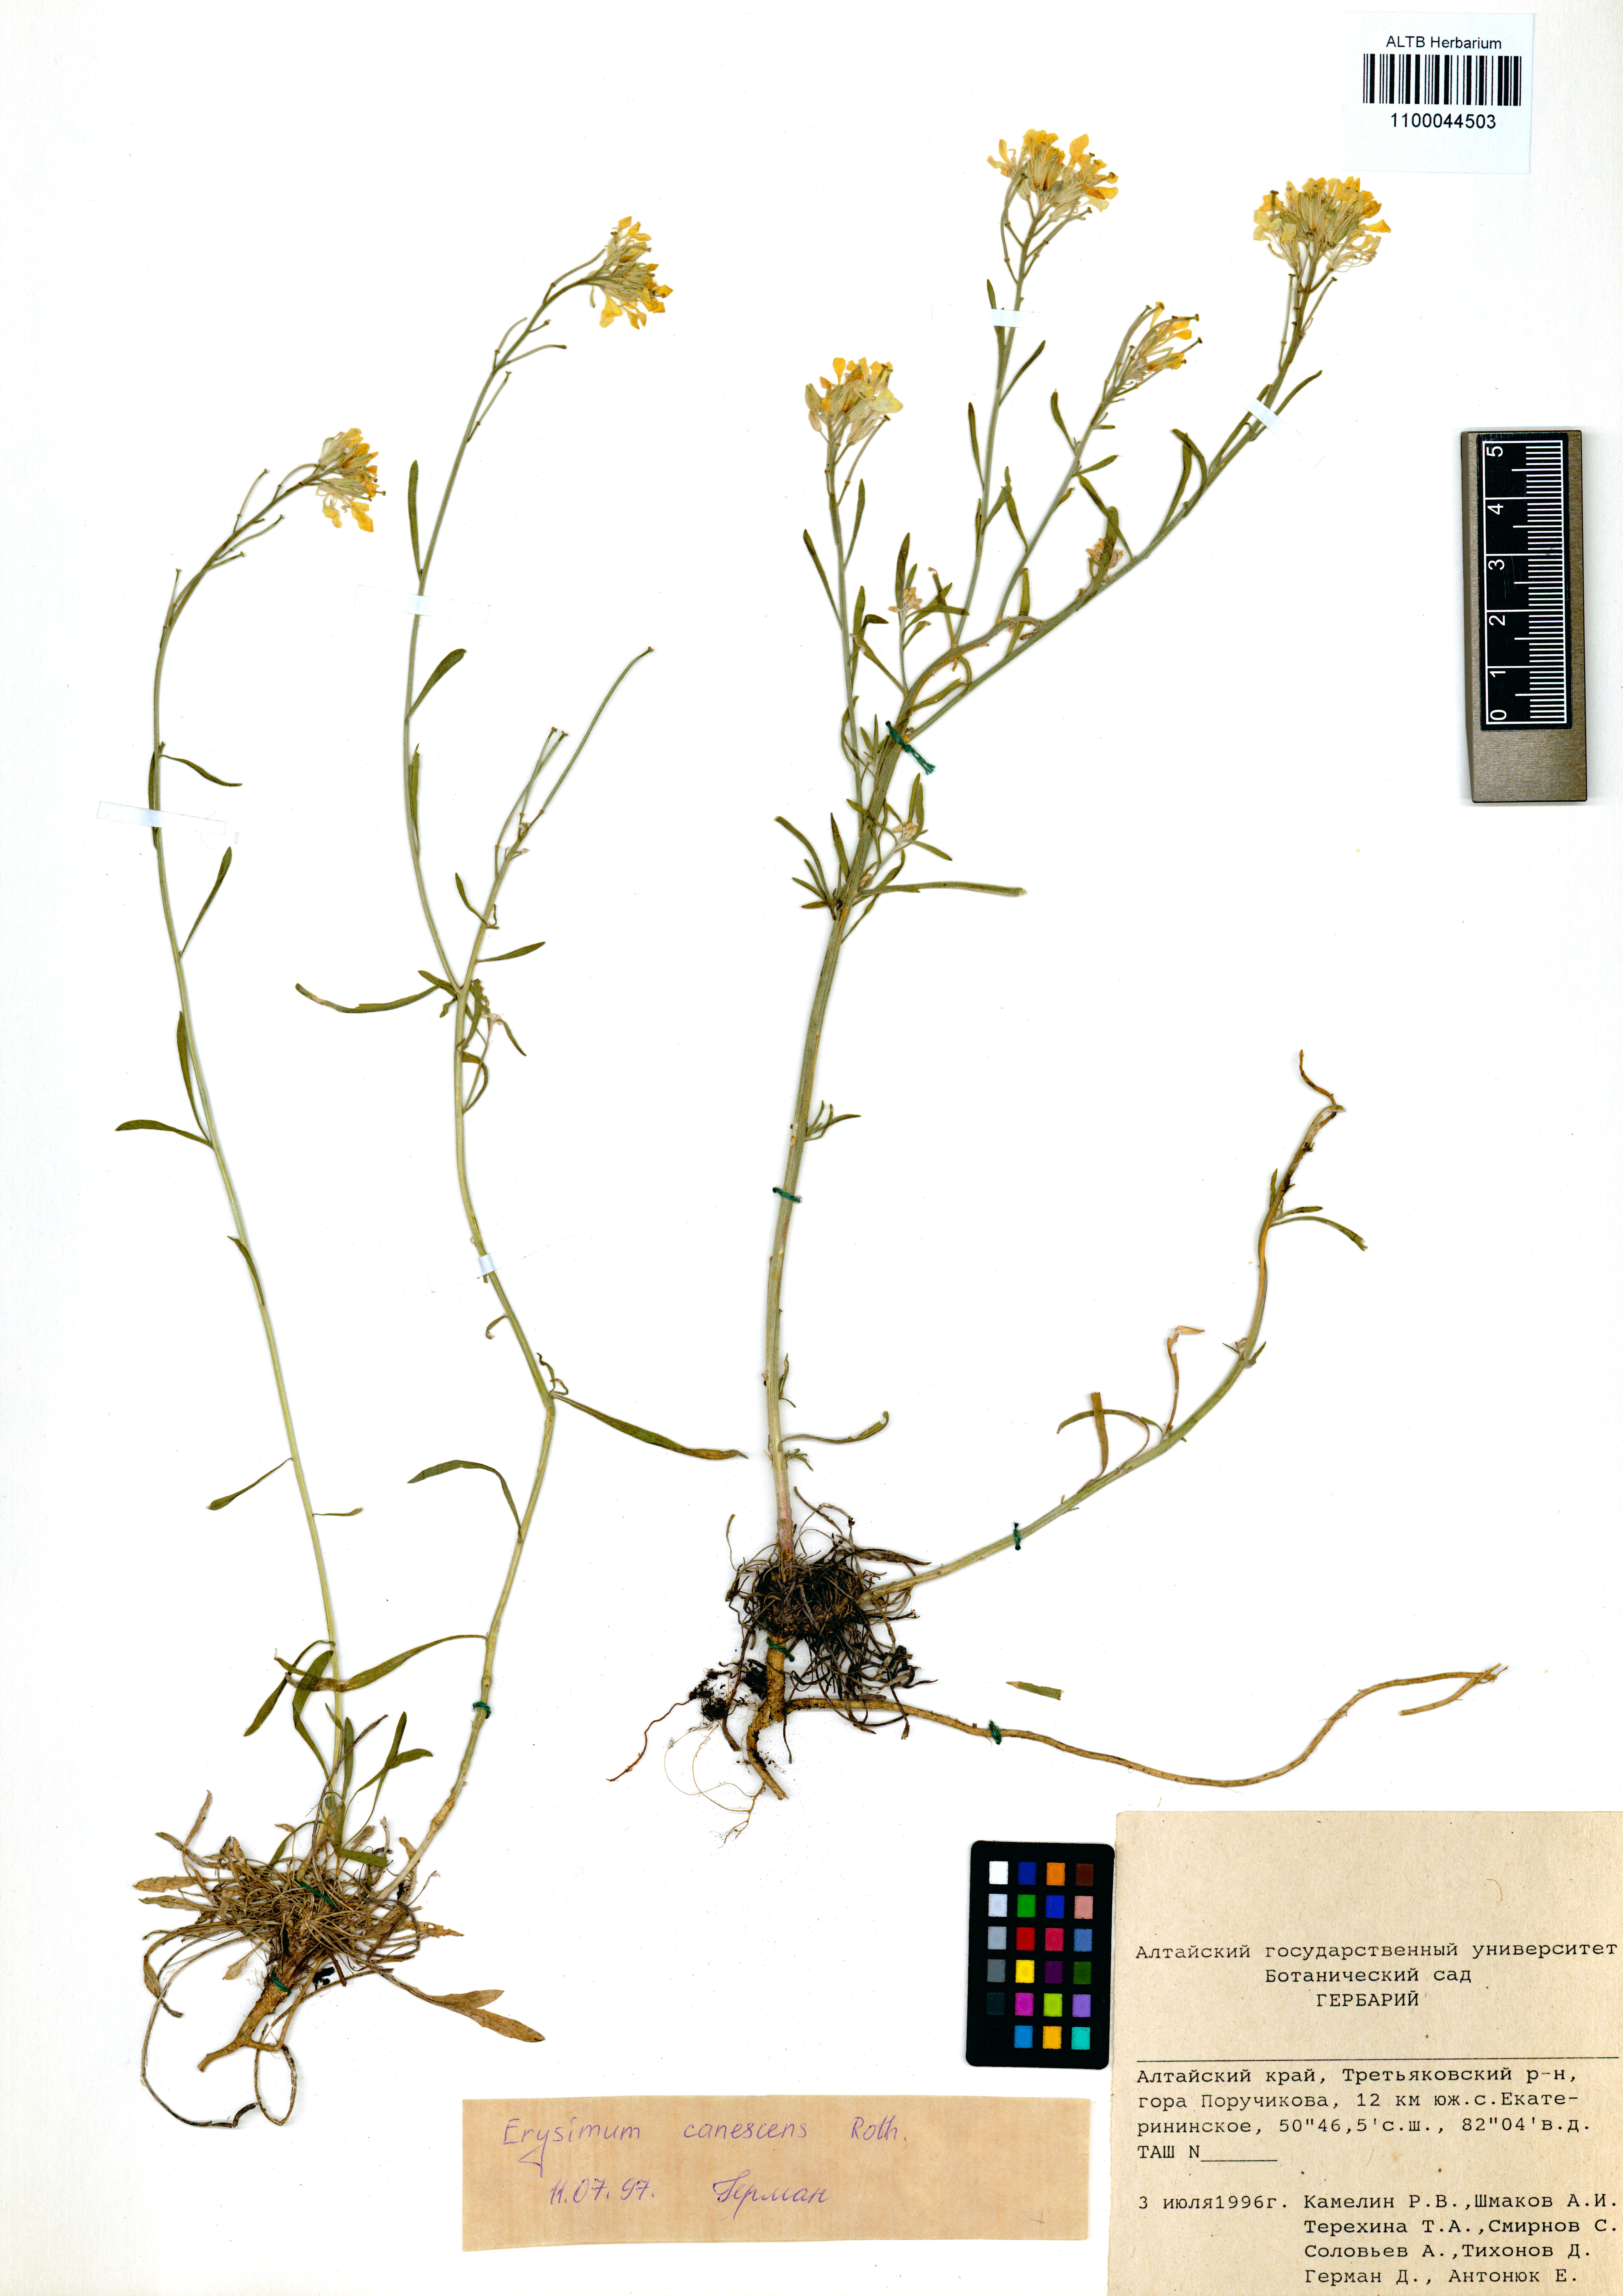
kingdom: Plantae
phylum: Tracheophyta
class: Magnoliopsida
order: Brassicales
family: Brassicaceae
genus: Erysimum
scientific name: Erysimum canescens
